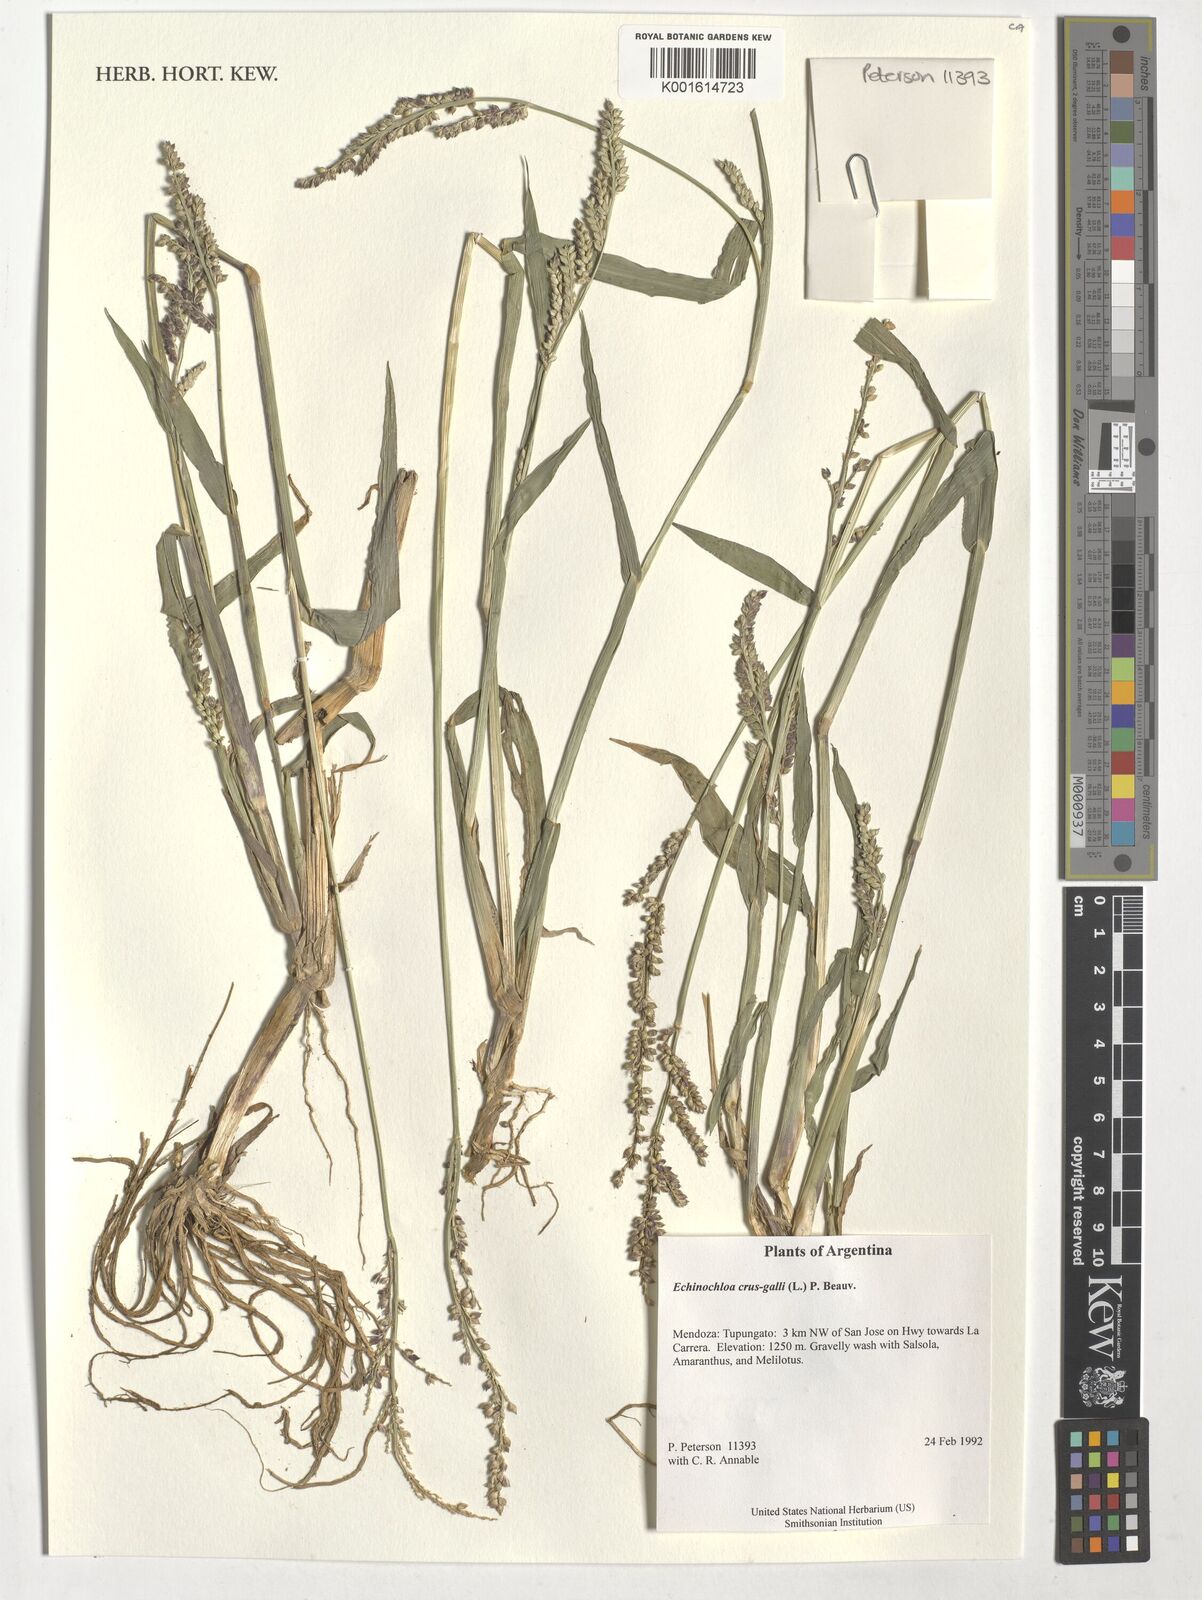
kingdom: Plantae
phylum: Tracheophyta
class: Liliopsida
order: Poales
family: Poaceae
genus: Echinochloa
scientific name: Echinochloa crus-galli
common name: Cockspur
